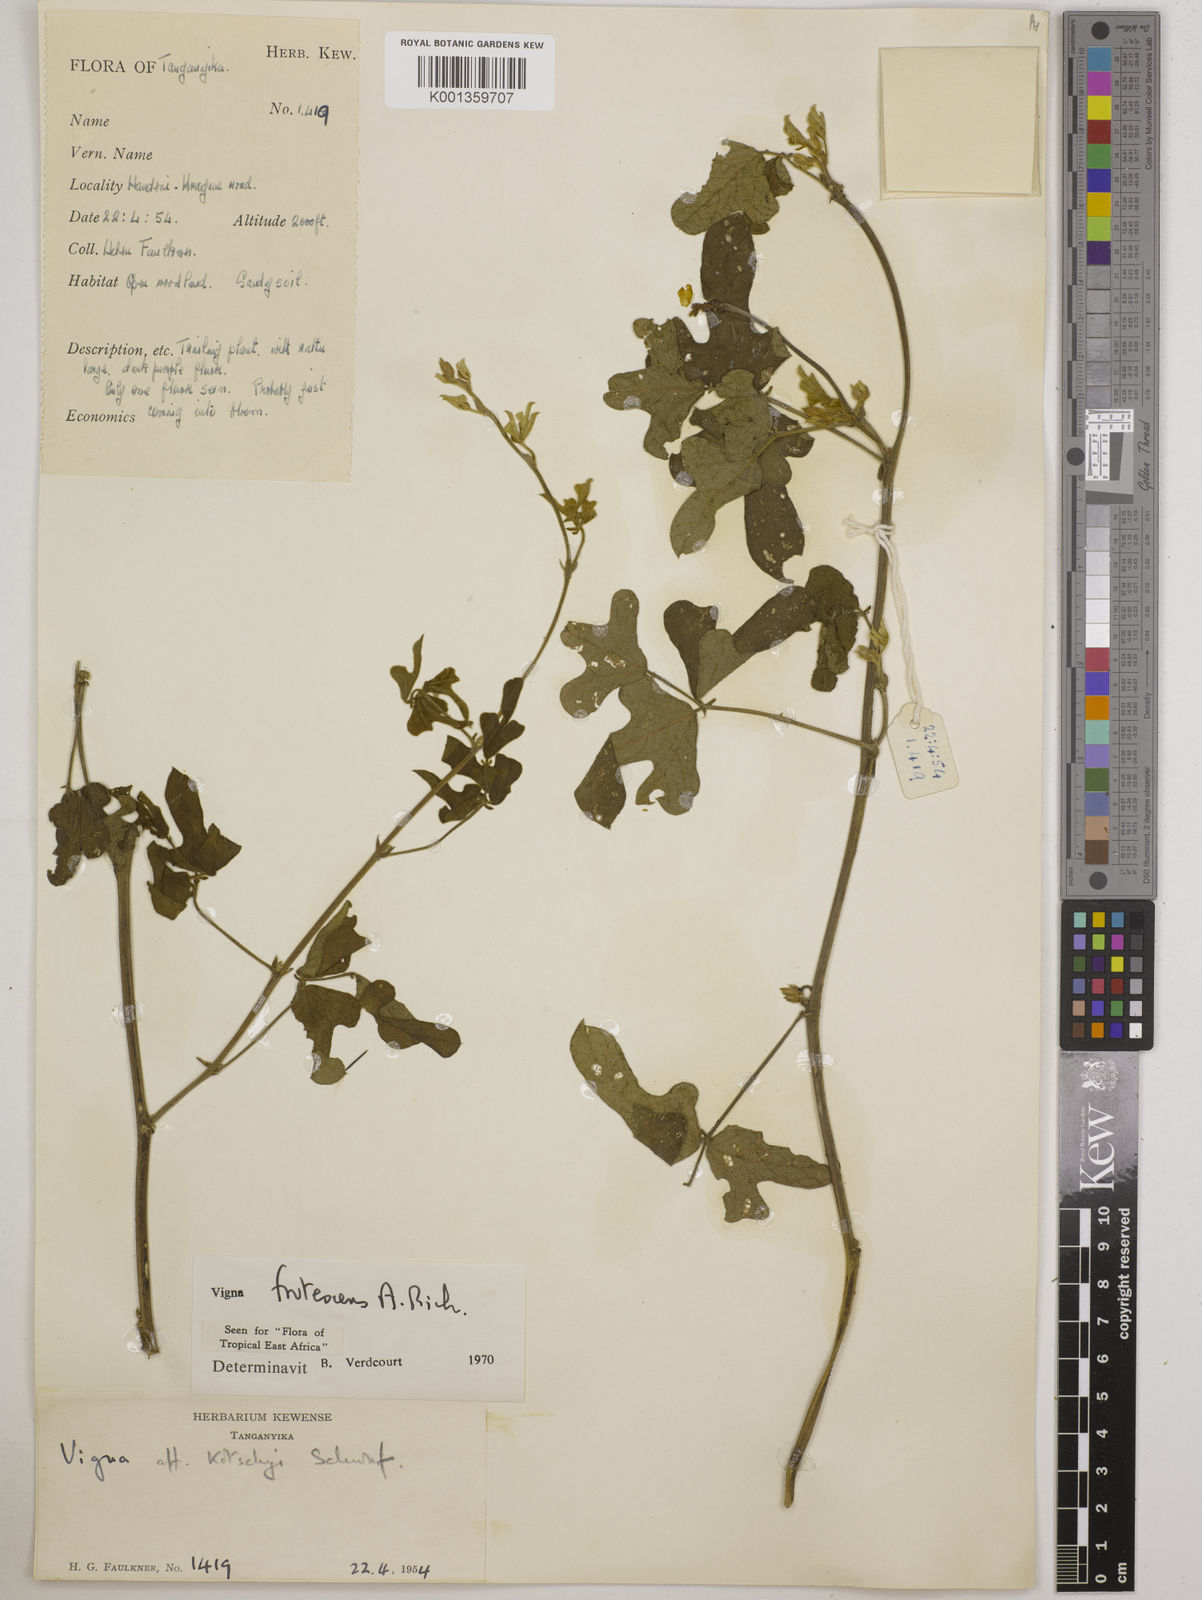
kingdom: Plantae
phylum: Tracheophyta
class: Magnoliopsida
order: Fabales
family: Fabaceae
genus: Vigna
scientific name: Vigna frutescens
